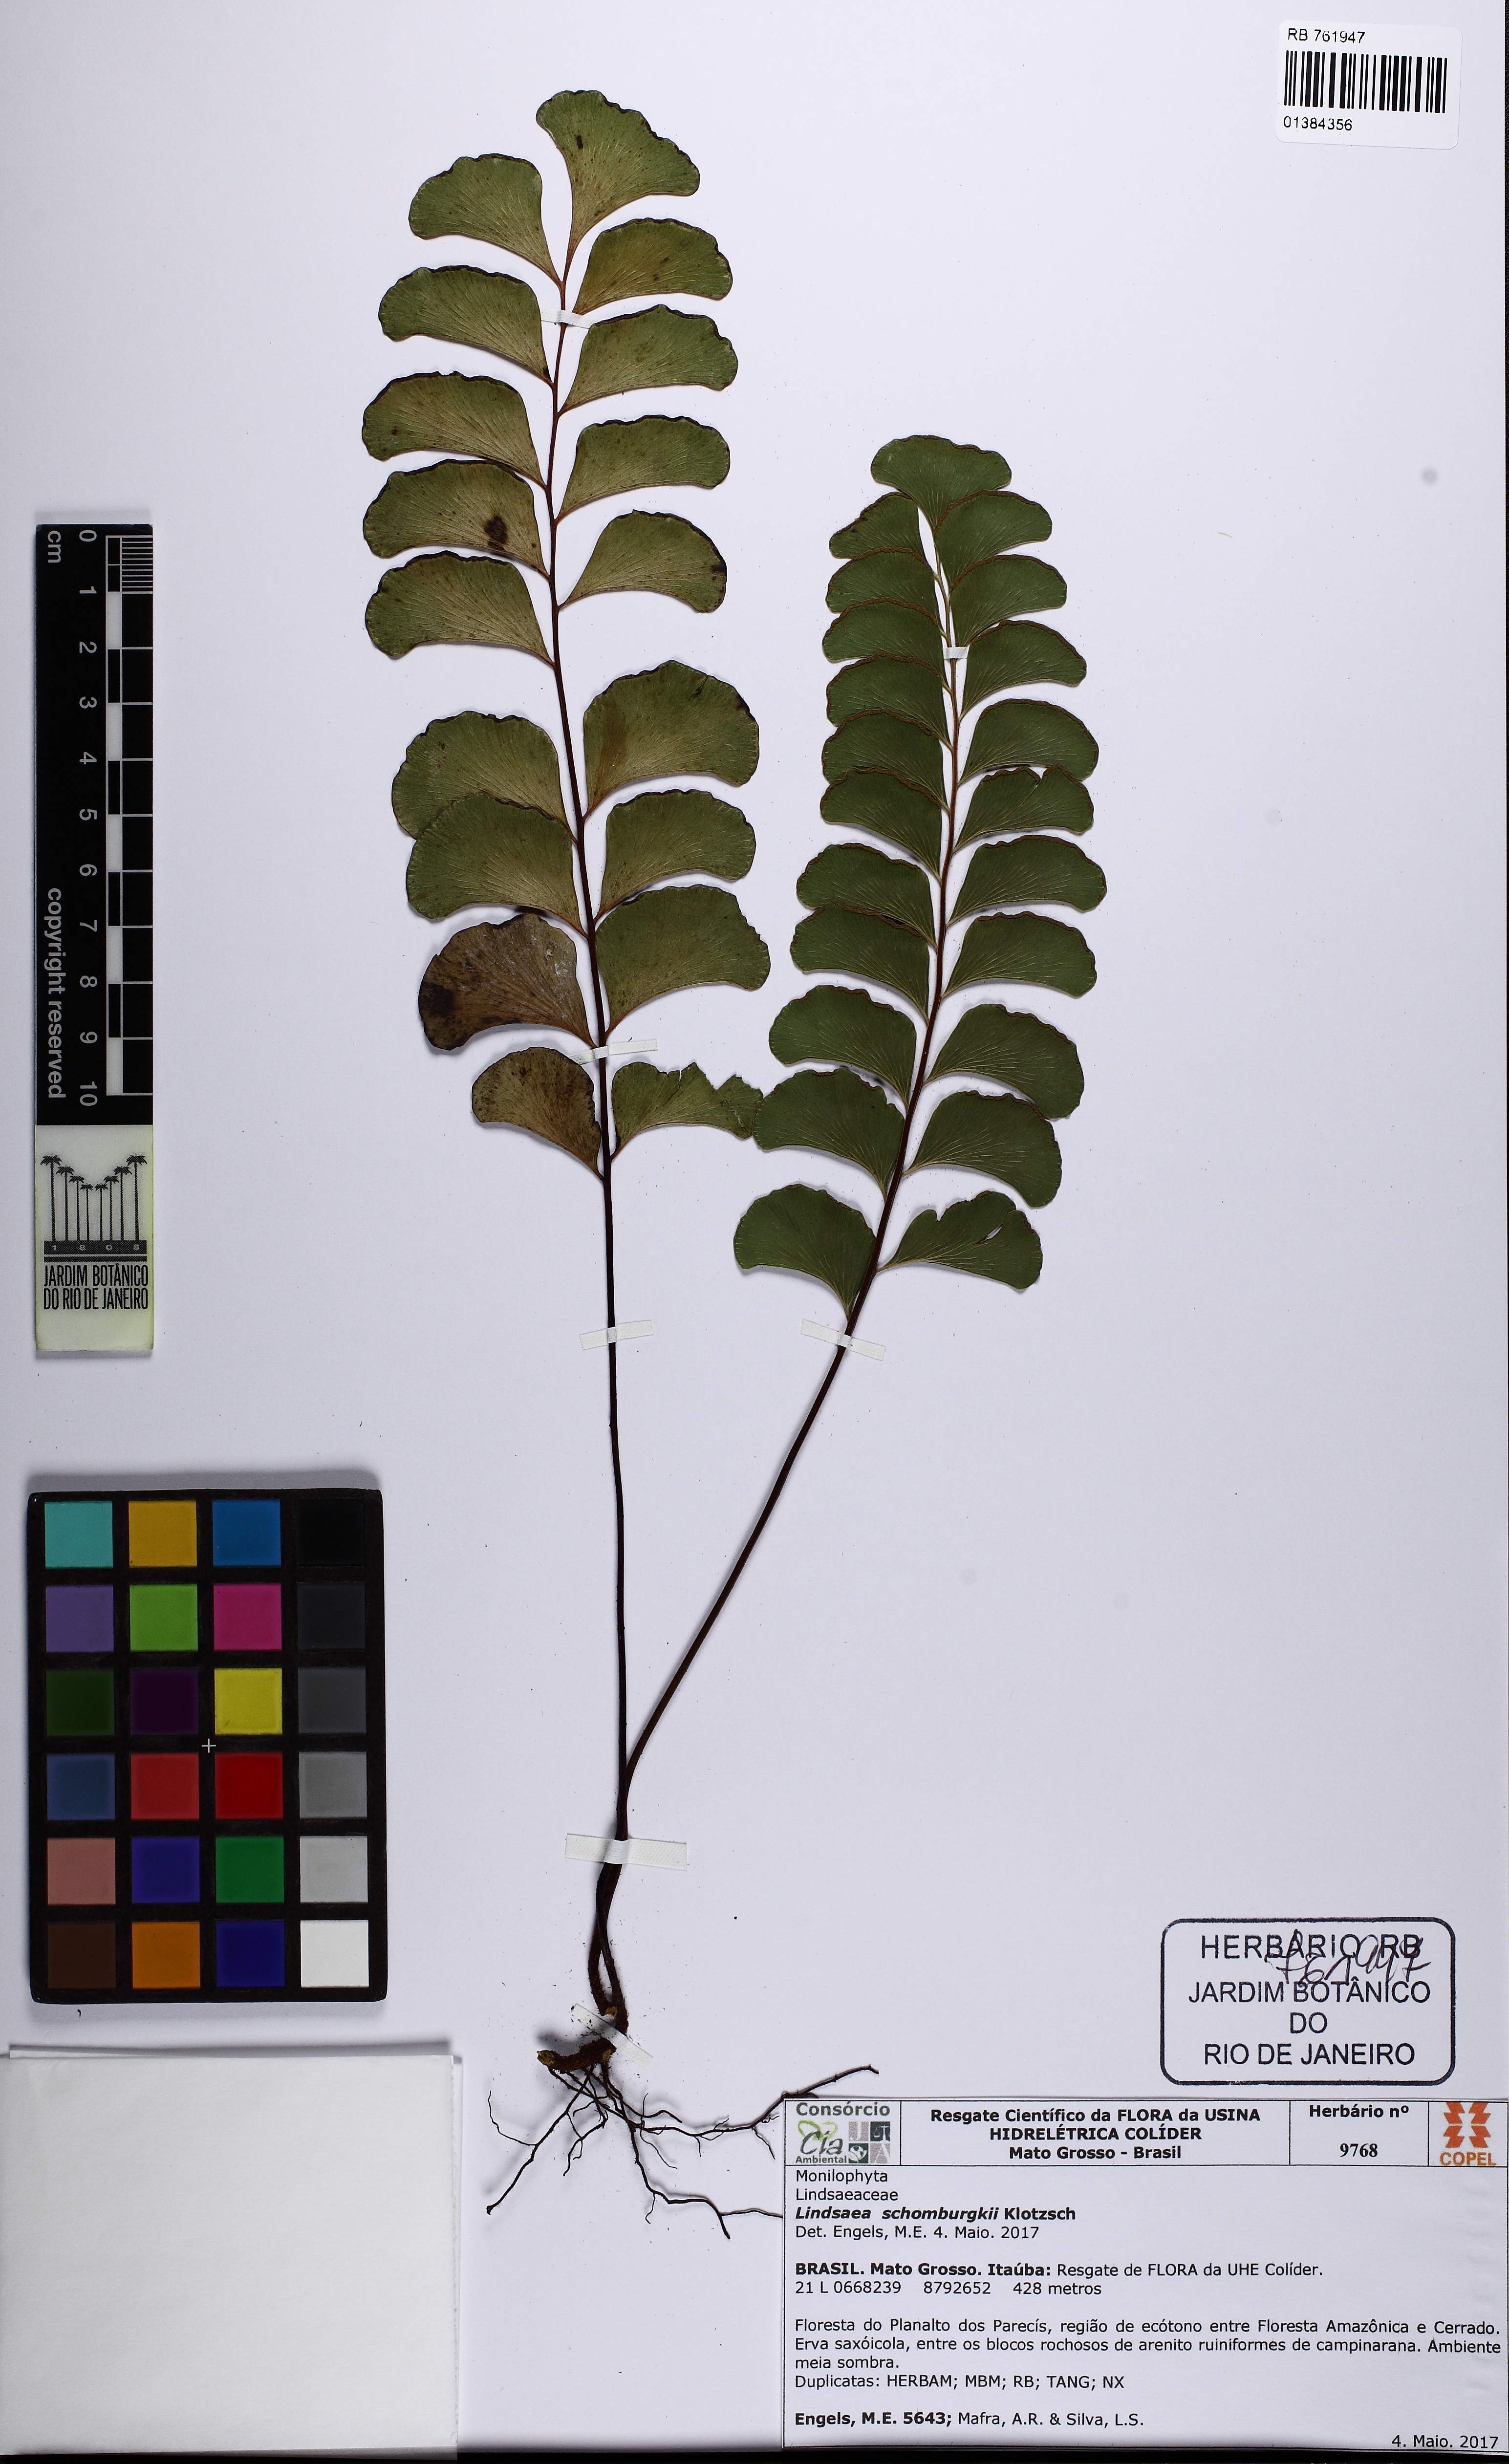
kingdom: Plantae
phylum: Tracheophyta
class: Polypodiopsida
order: Polypodiales
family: Lindsaeaceae
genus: Lindsaea
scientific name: Lindsaea schomburgkii
